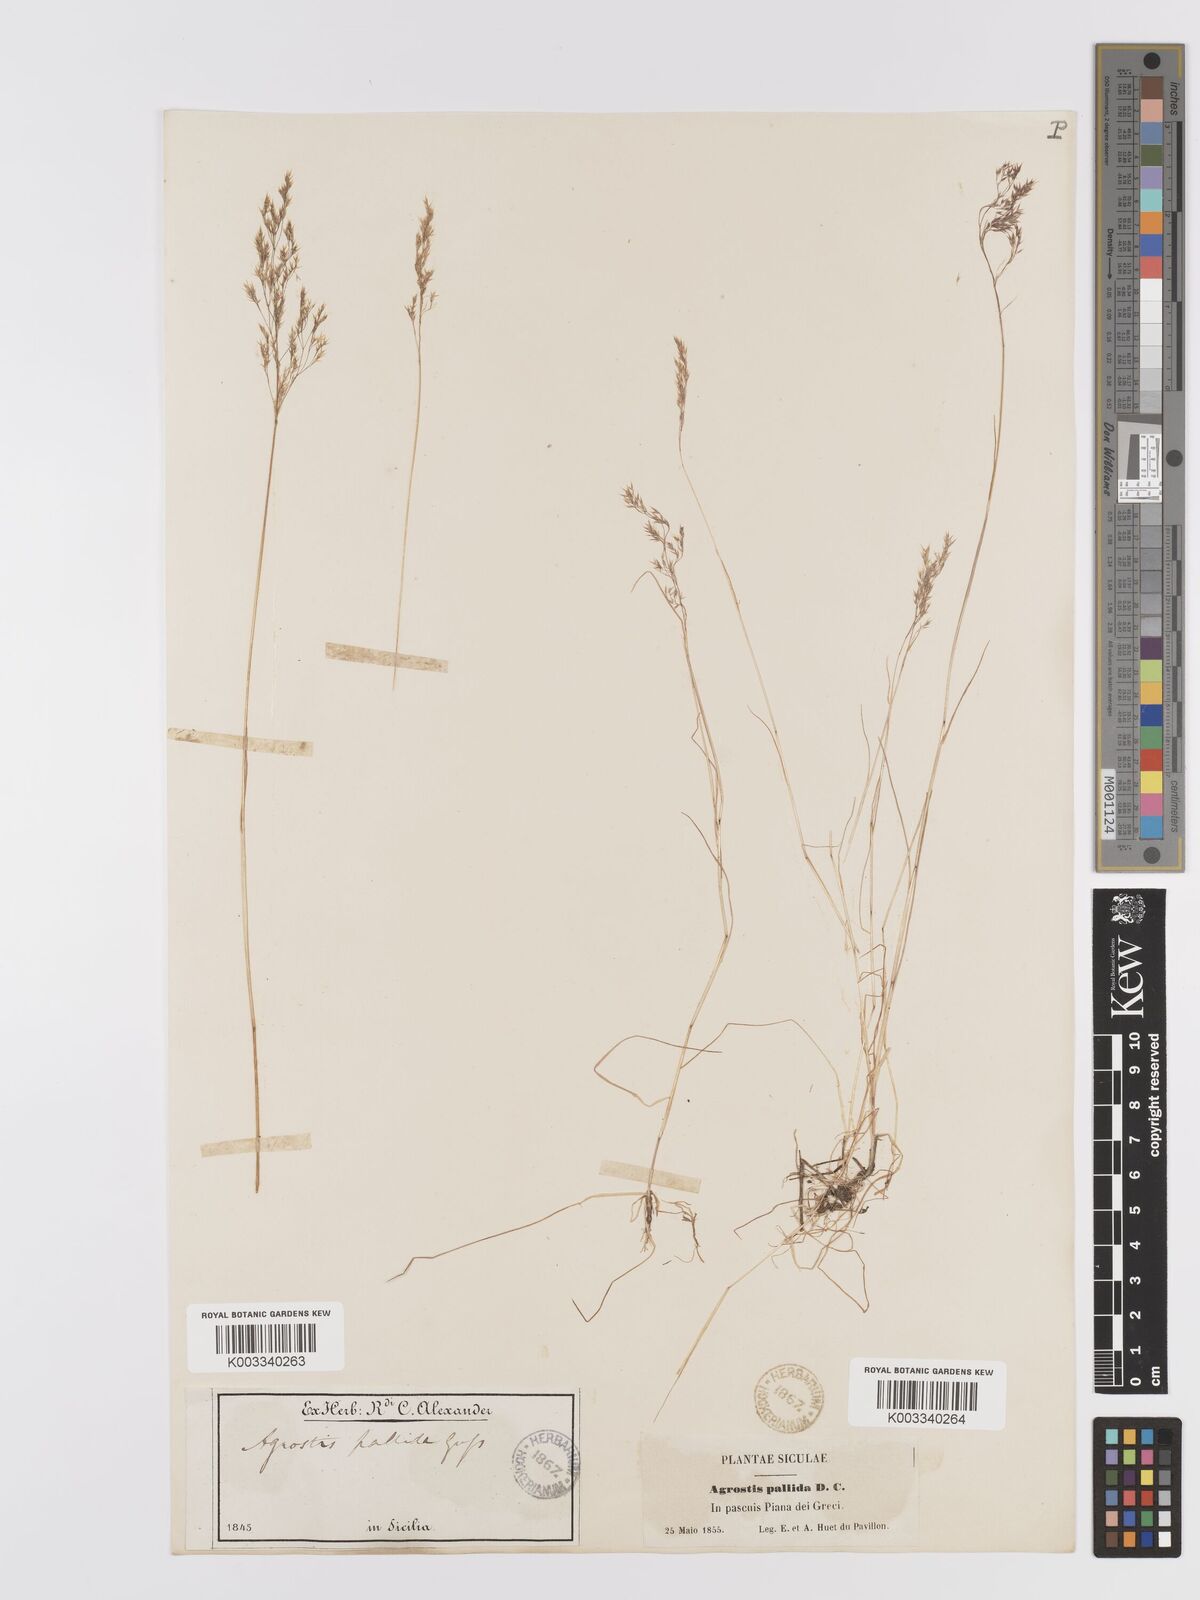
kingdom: Plantae
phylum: Tracheophyta
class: Liliopsida
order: Poales
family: Poaceae
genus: Agrostis
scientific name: Agrostis pourretii
